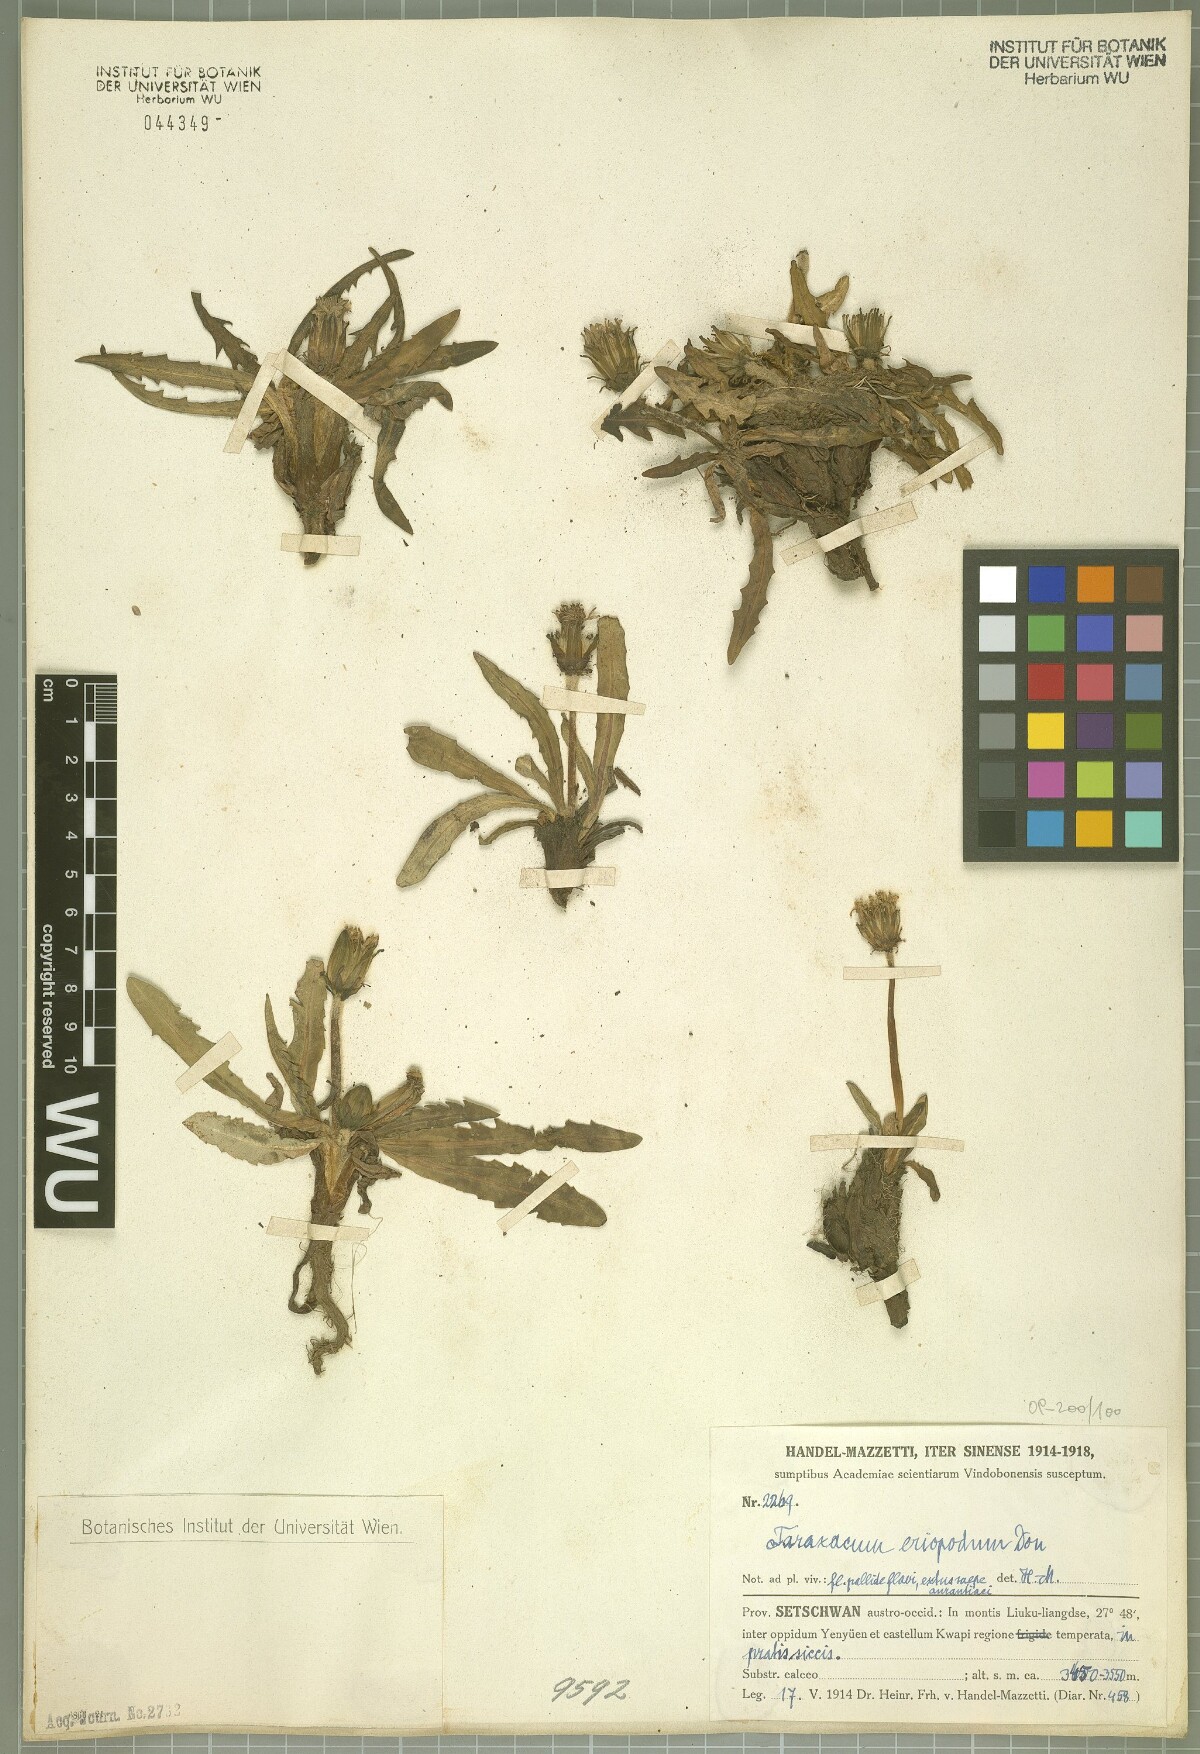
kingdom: Plantae
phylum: Tracheophyta
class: Magnoliopsida
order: Asterales
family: Asteraceae
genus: Taraxacum
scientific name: Taraxacum eriopodum
